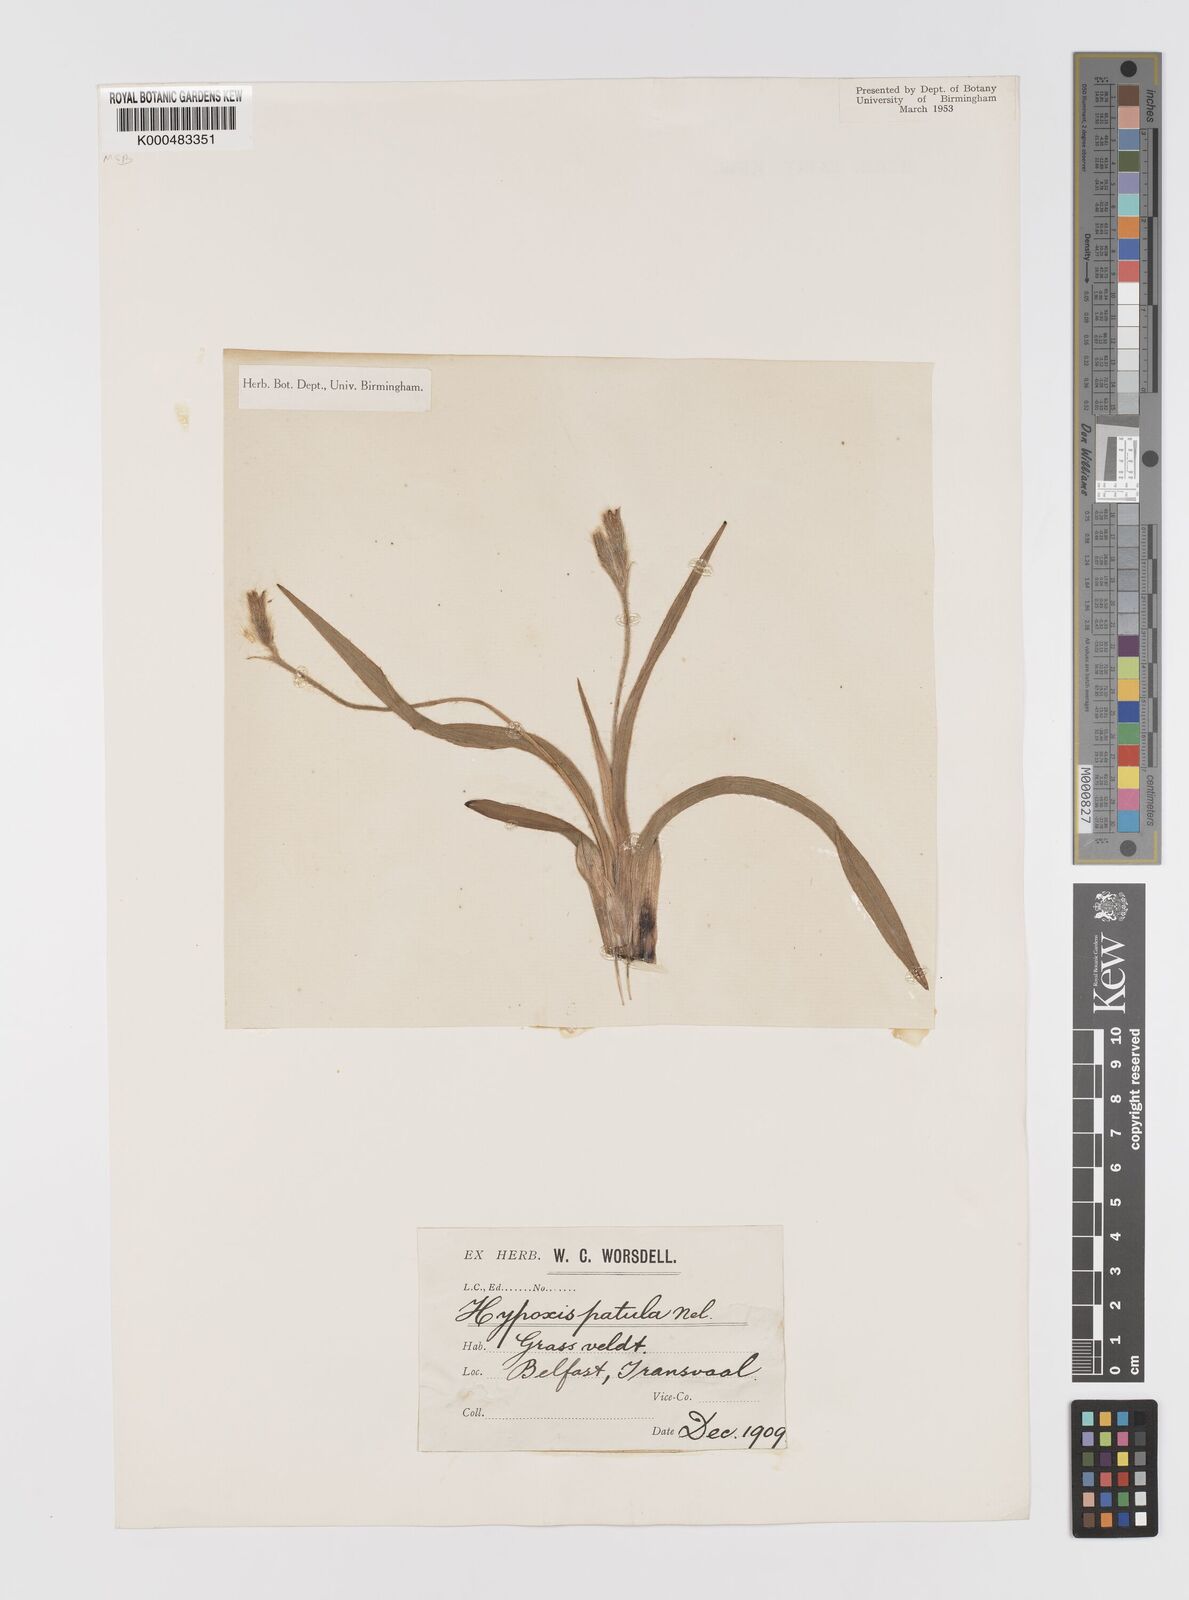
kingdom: Plantae
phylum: Tracheophyta
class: Liliopsida
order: Asparagales
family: Hypoxidaceae
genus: Hypoxis
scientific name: Hypoxis hemerocallidea
